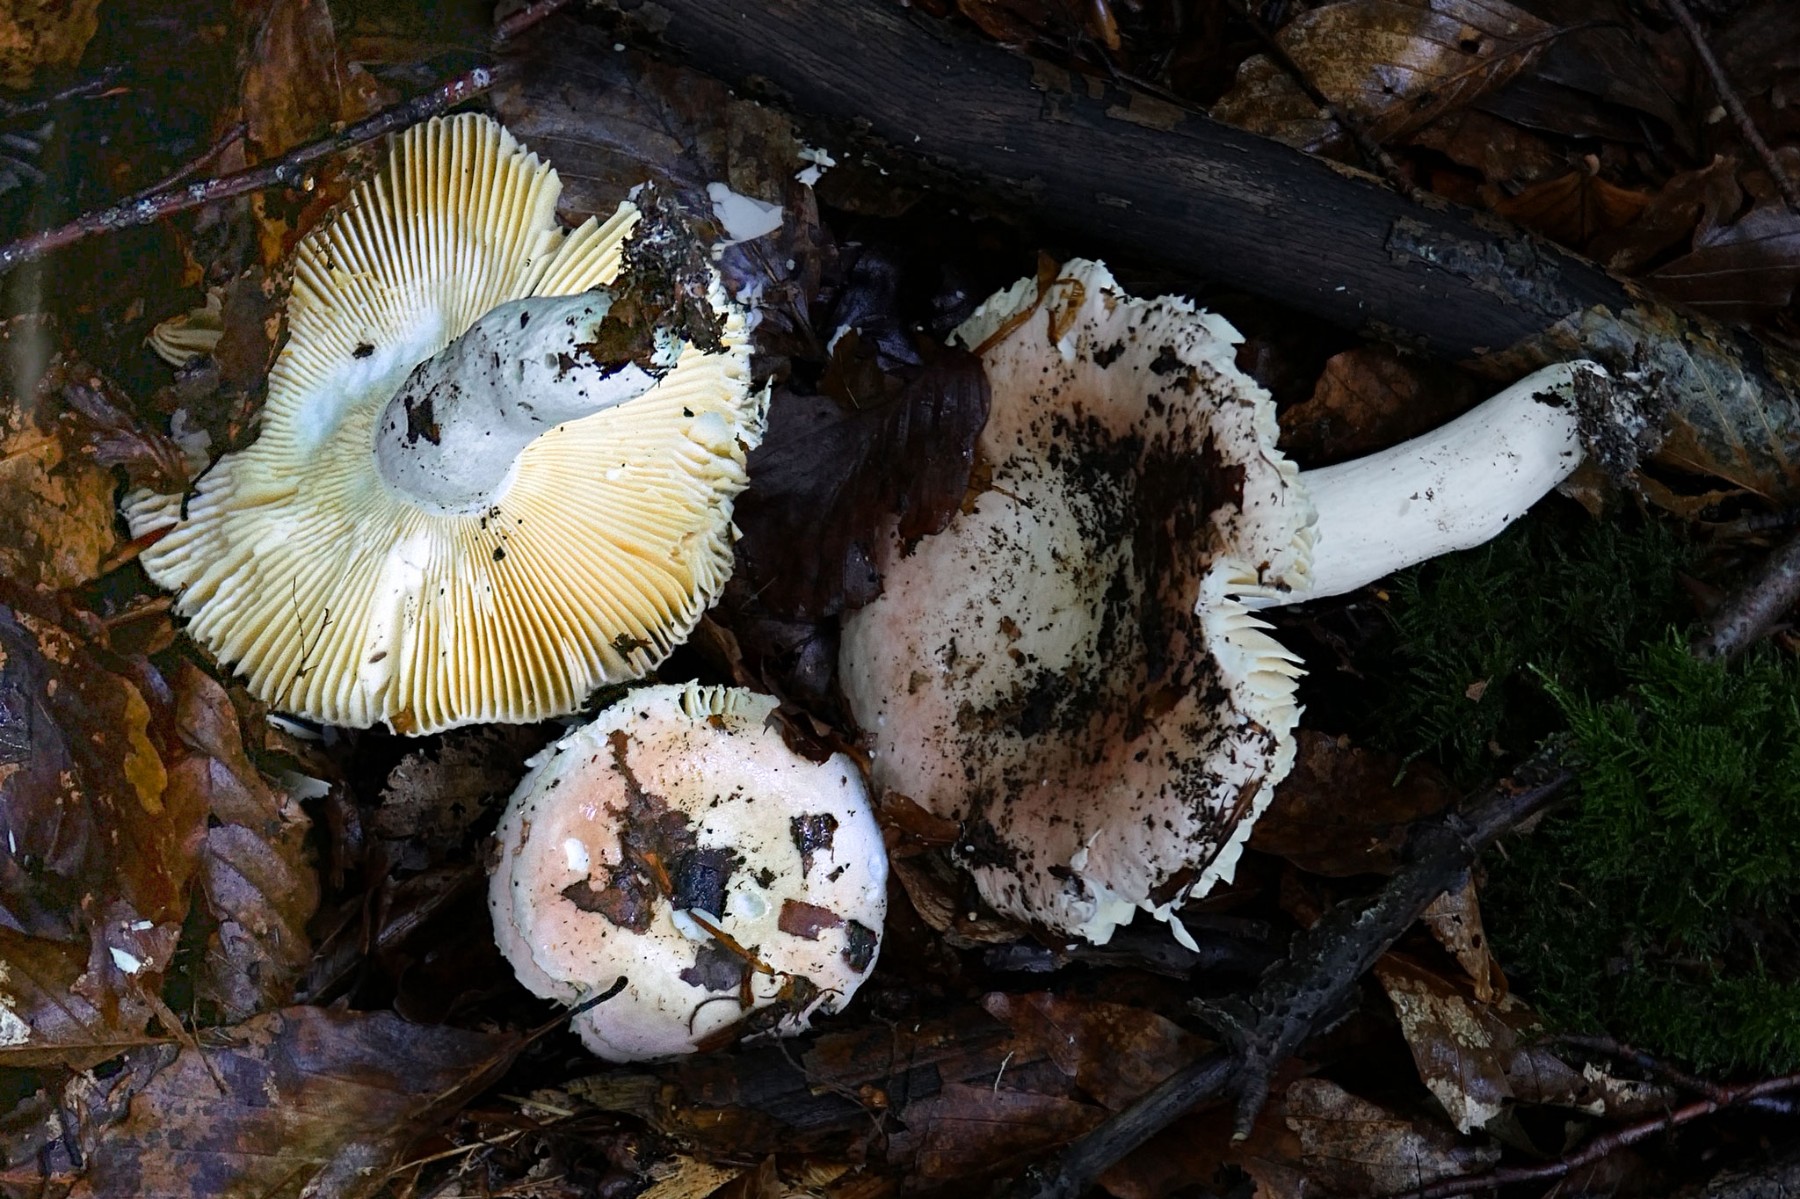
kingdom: Fungi
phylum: Basidiomycota
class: Agaricomycetes
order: Russulales
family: Russulaceae
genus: Russula
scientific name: Russula veternosa
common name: blødkødet skørhat
